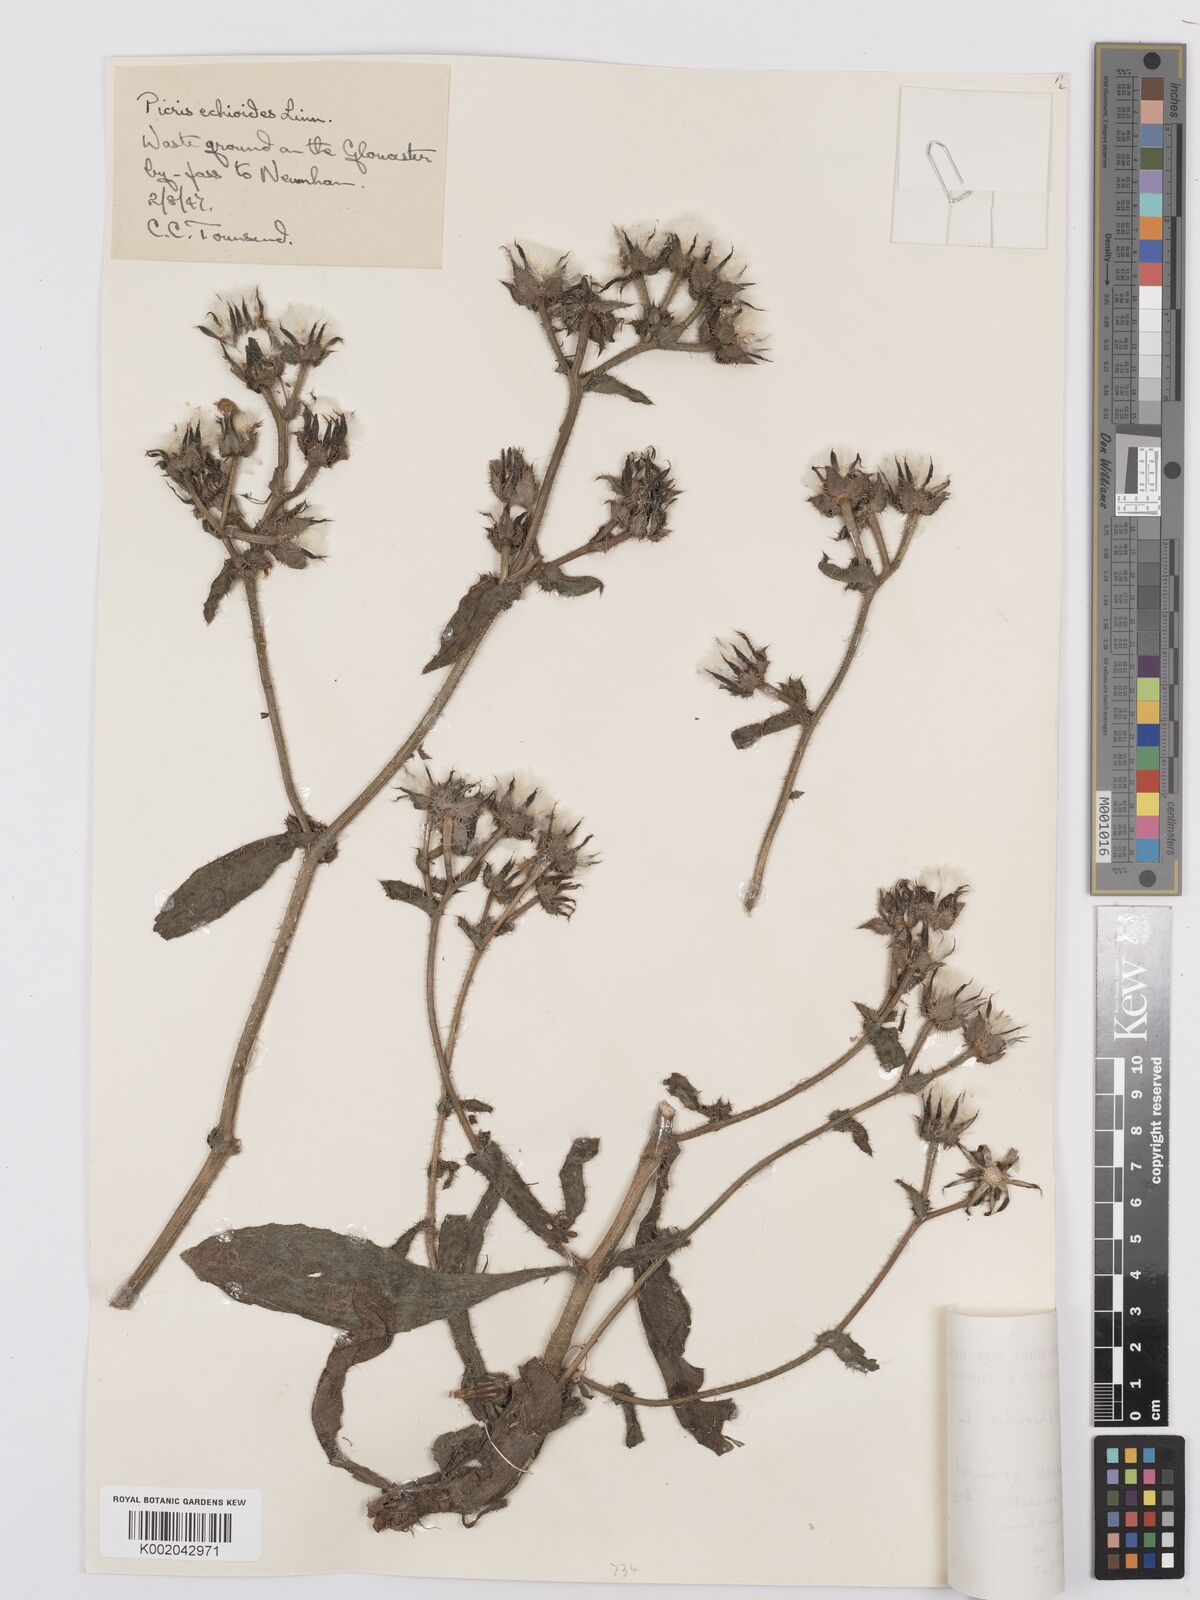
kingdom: Plantae
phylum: Tracheophyta
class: Magnoliopsida
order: Asterales
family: Asteraceae
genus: Helminthotheca
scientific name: Helminthotheca echioides
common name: Ox-tongue
